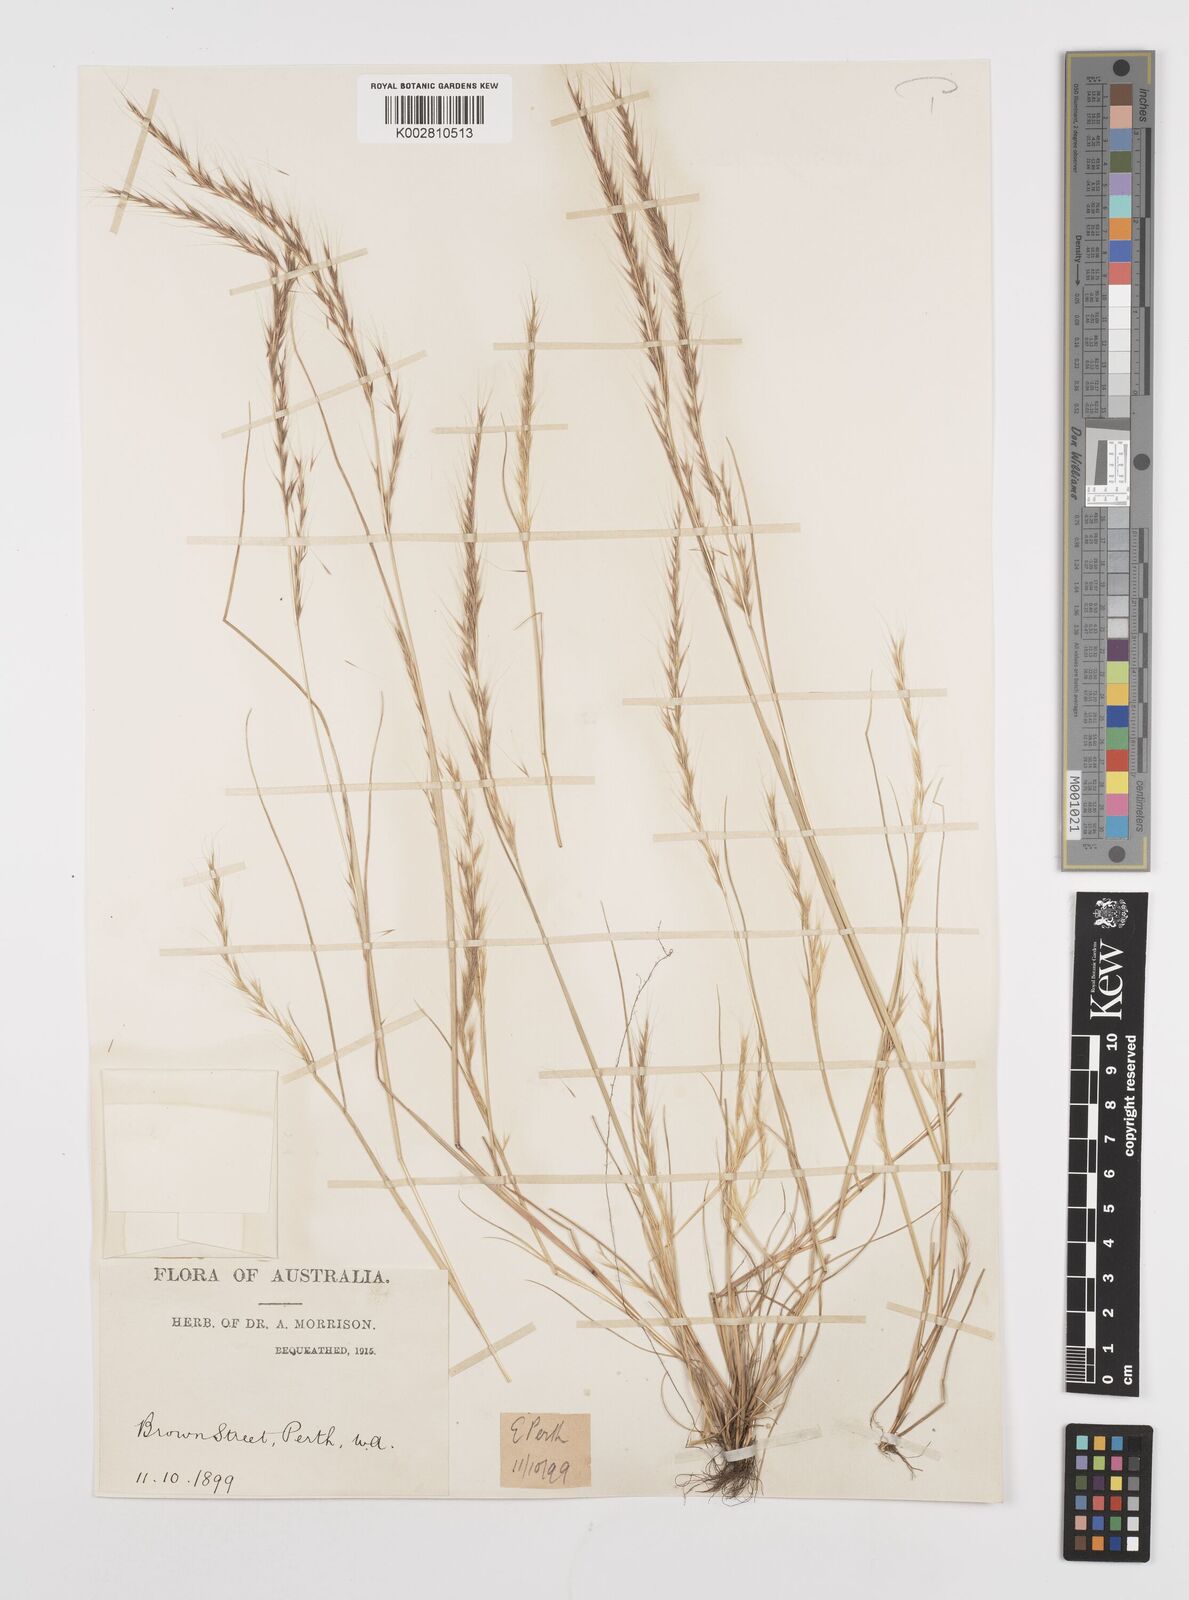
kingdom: Plantae
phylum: Tracheophyta
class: Liliopsida
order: Poales
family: Poaceae
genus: Festuca
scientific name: Festuca myuros
